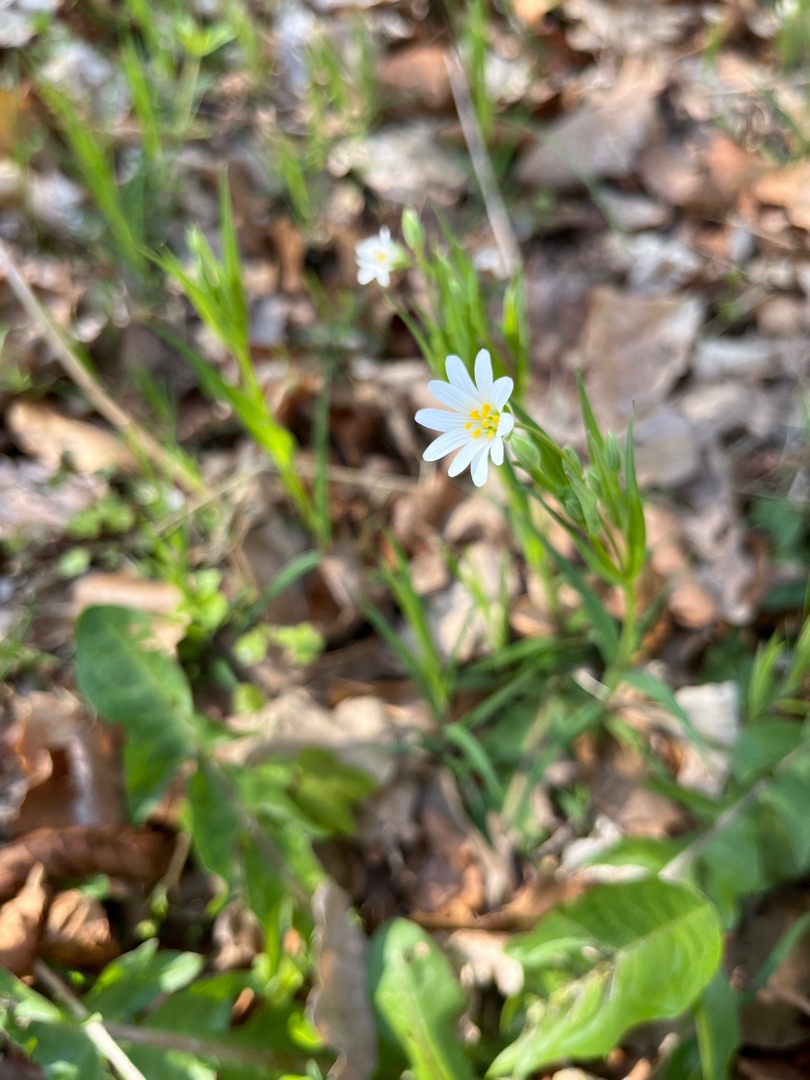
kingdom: Plantae
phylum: Tracheophyta
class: Magnoliopsida
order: Caryophyllales
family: Caryophyllaceae
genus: Rabelera
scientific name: Rabelera holostea
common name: Stor fladstjerne
